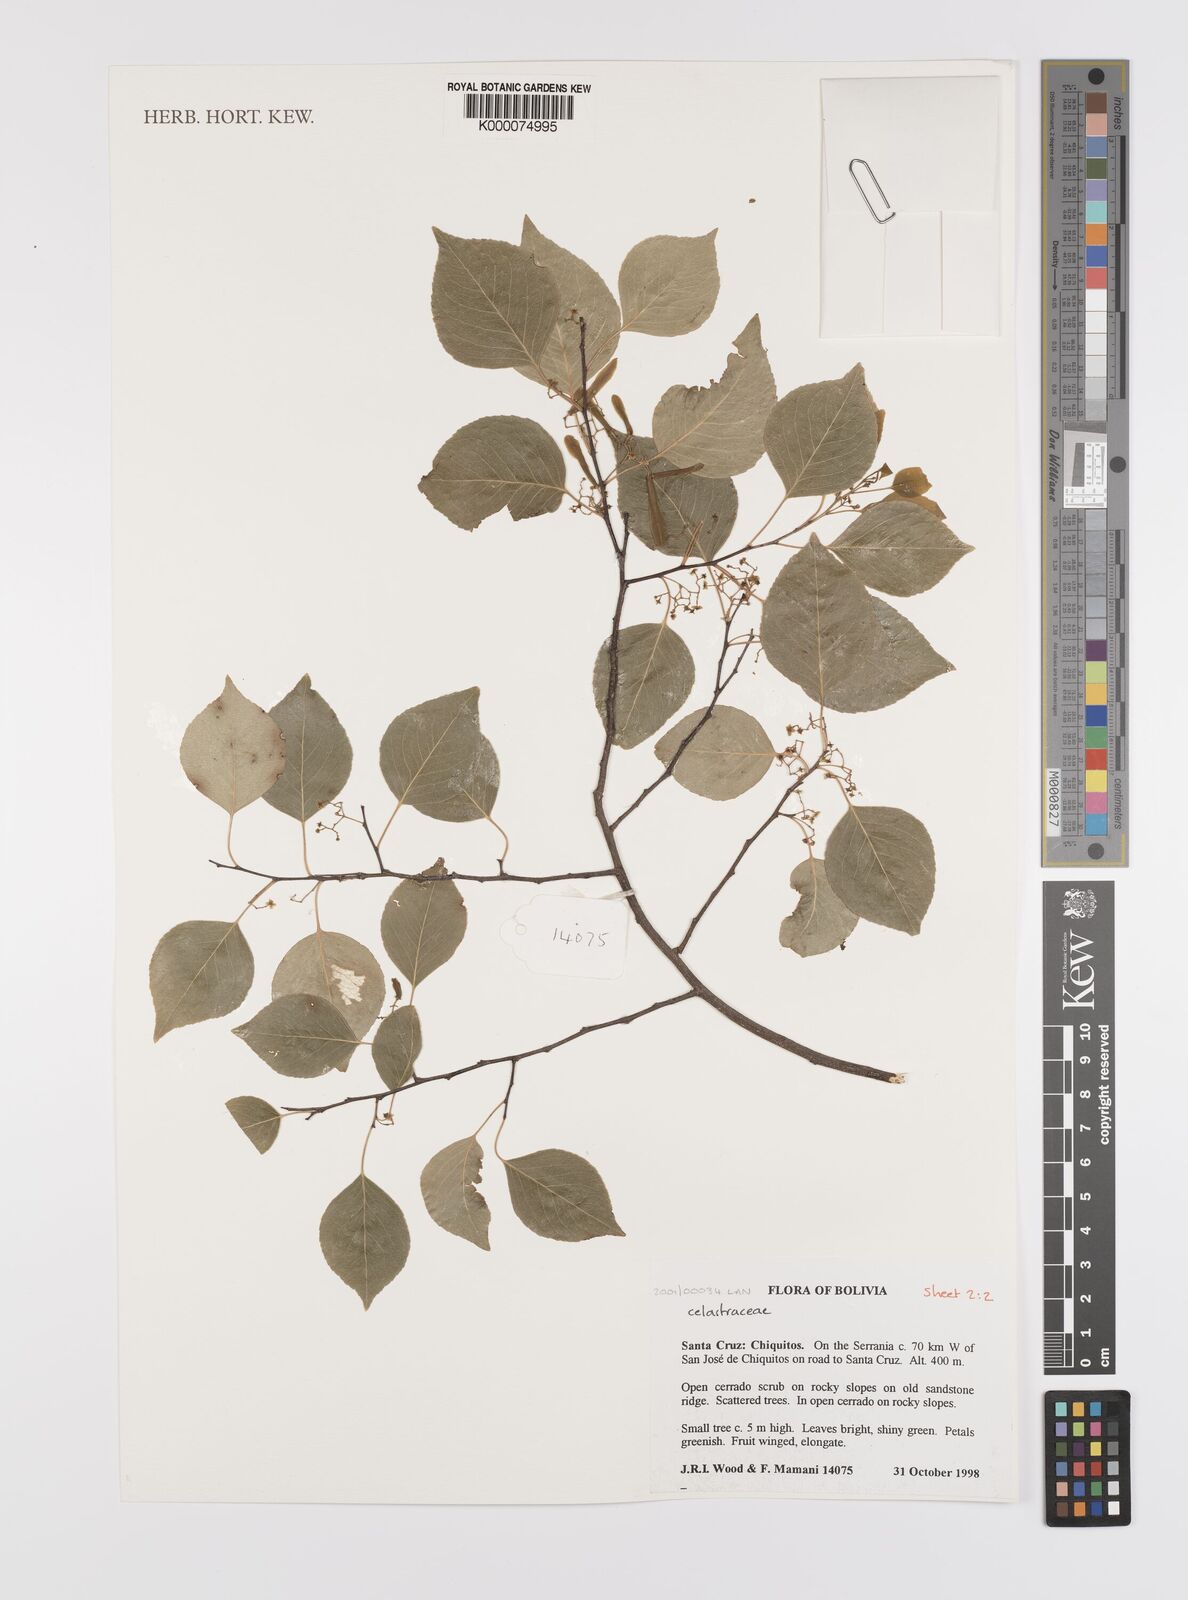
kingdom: Plantae
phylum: Tracheophyta
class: Magnoliopsida
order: Celastrales
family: Celastraceae
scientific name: Celastraceae
